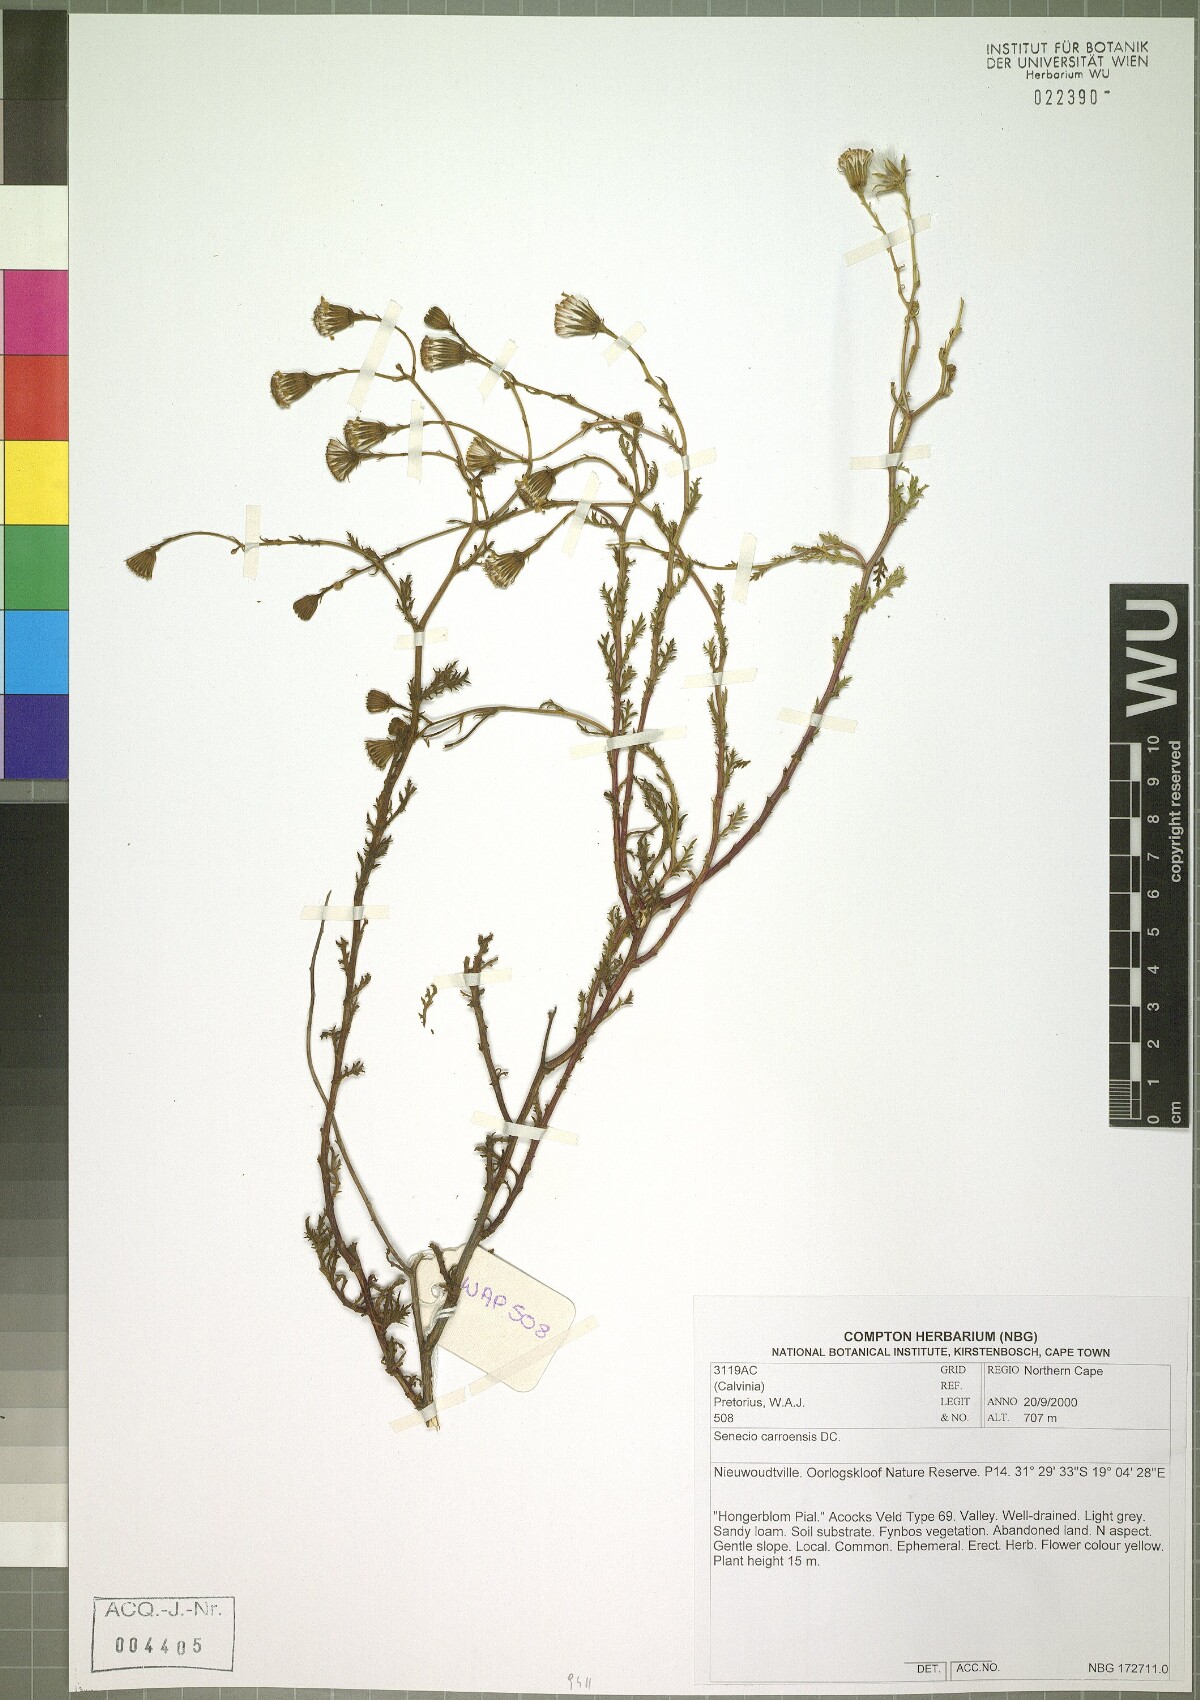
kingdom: Plantae
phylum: Tracheophyta
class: Magnoliopsida
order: Asterales
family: Asteraceae
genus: Senecio
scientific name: Senecio carroensis
